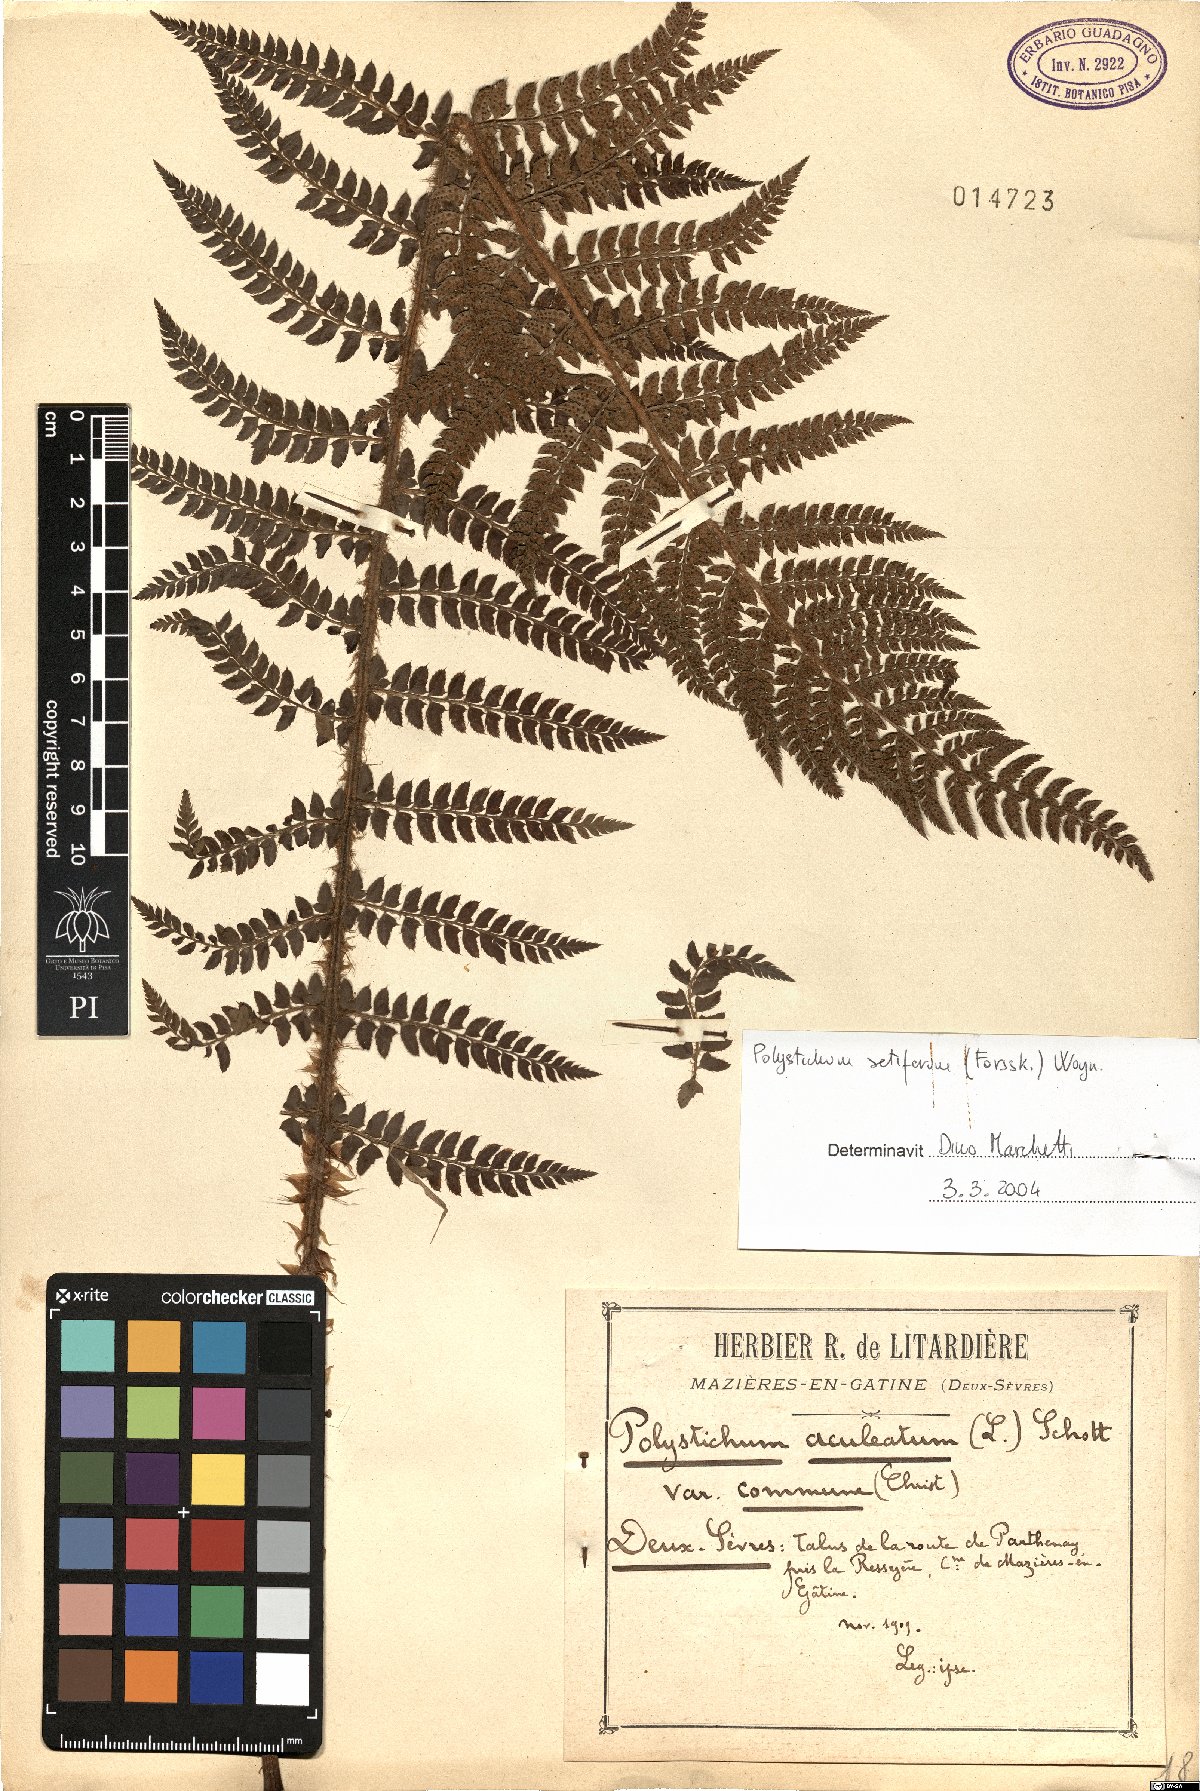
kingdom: Plantae
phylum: Tracheophyta
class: Polypodiopsida
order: Polypodiales
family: Dryopteridaceae
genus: Polystichum
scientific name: Polystichum setiferum
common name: Soft shield-fern
